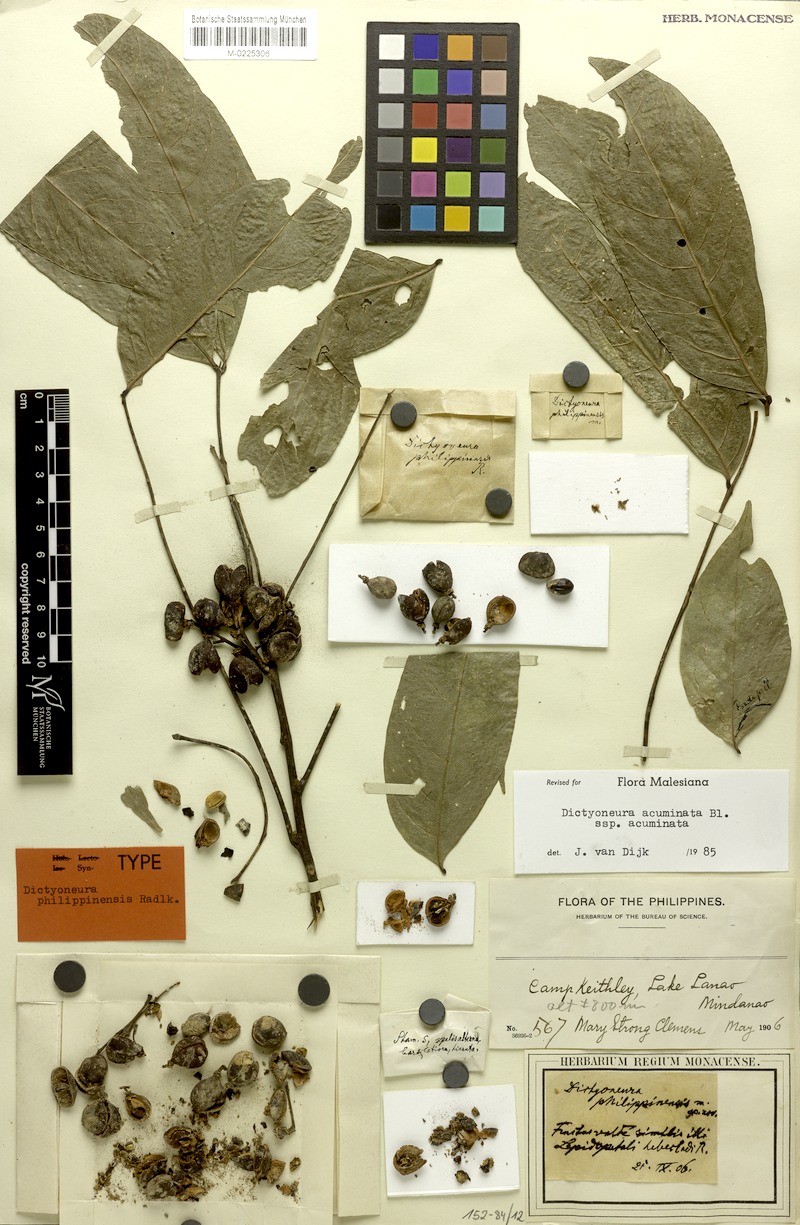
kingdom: Plantae
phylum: Tracheophyta
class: Magnoliopsida
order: Sapindales
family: Sapindaceae
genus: Dictyoneura
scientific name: Dictyoneura acuminata
